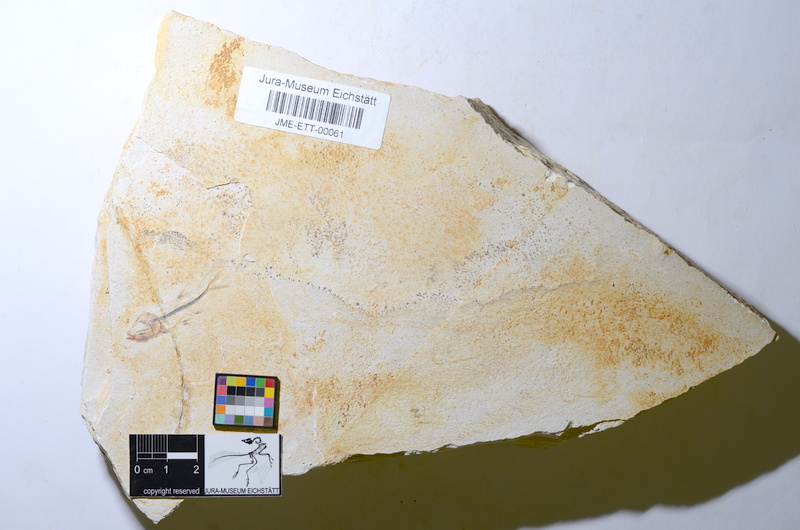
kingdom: Animalia
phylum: Chordata
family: Ascalaboidae
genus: Ebertichthys
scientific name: Ebertichthys ettlingensis
